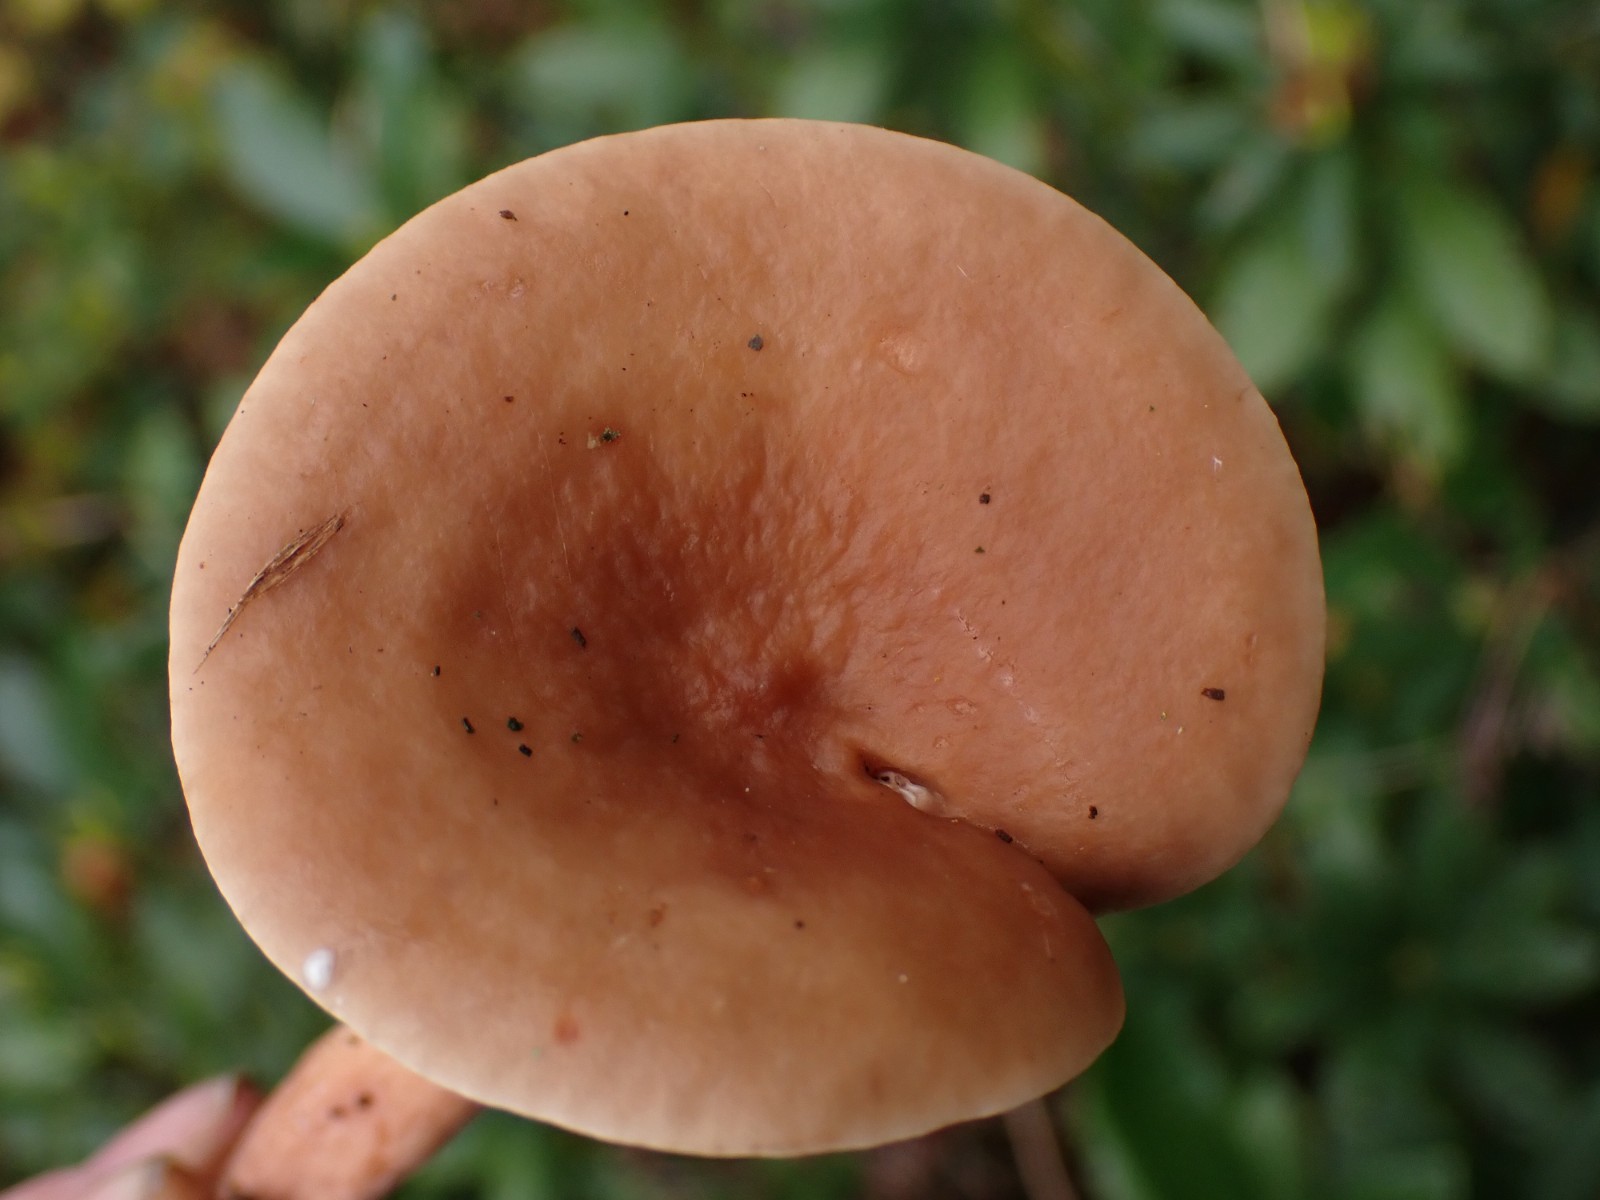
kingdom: Fungi
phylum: Basidiomycota
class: Agaricomycetes
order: Russulales
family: Russulaceae
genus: Lactarius
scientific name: Lactarius subdulcis
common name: sødlig mælkehat
